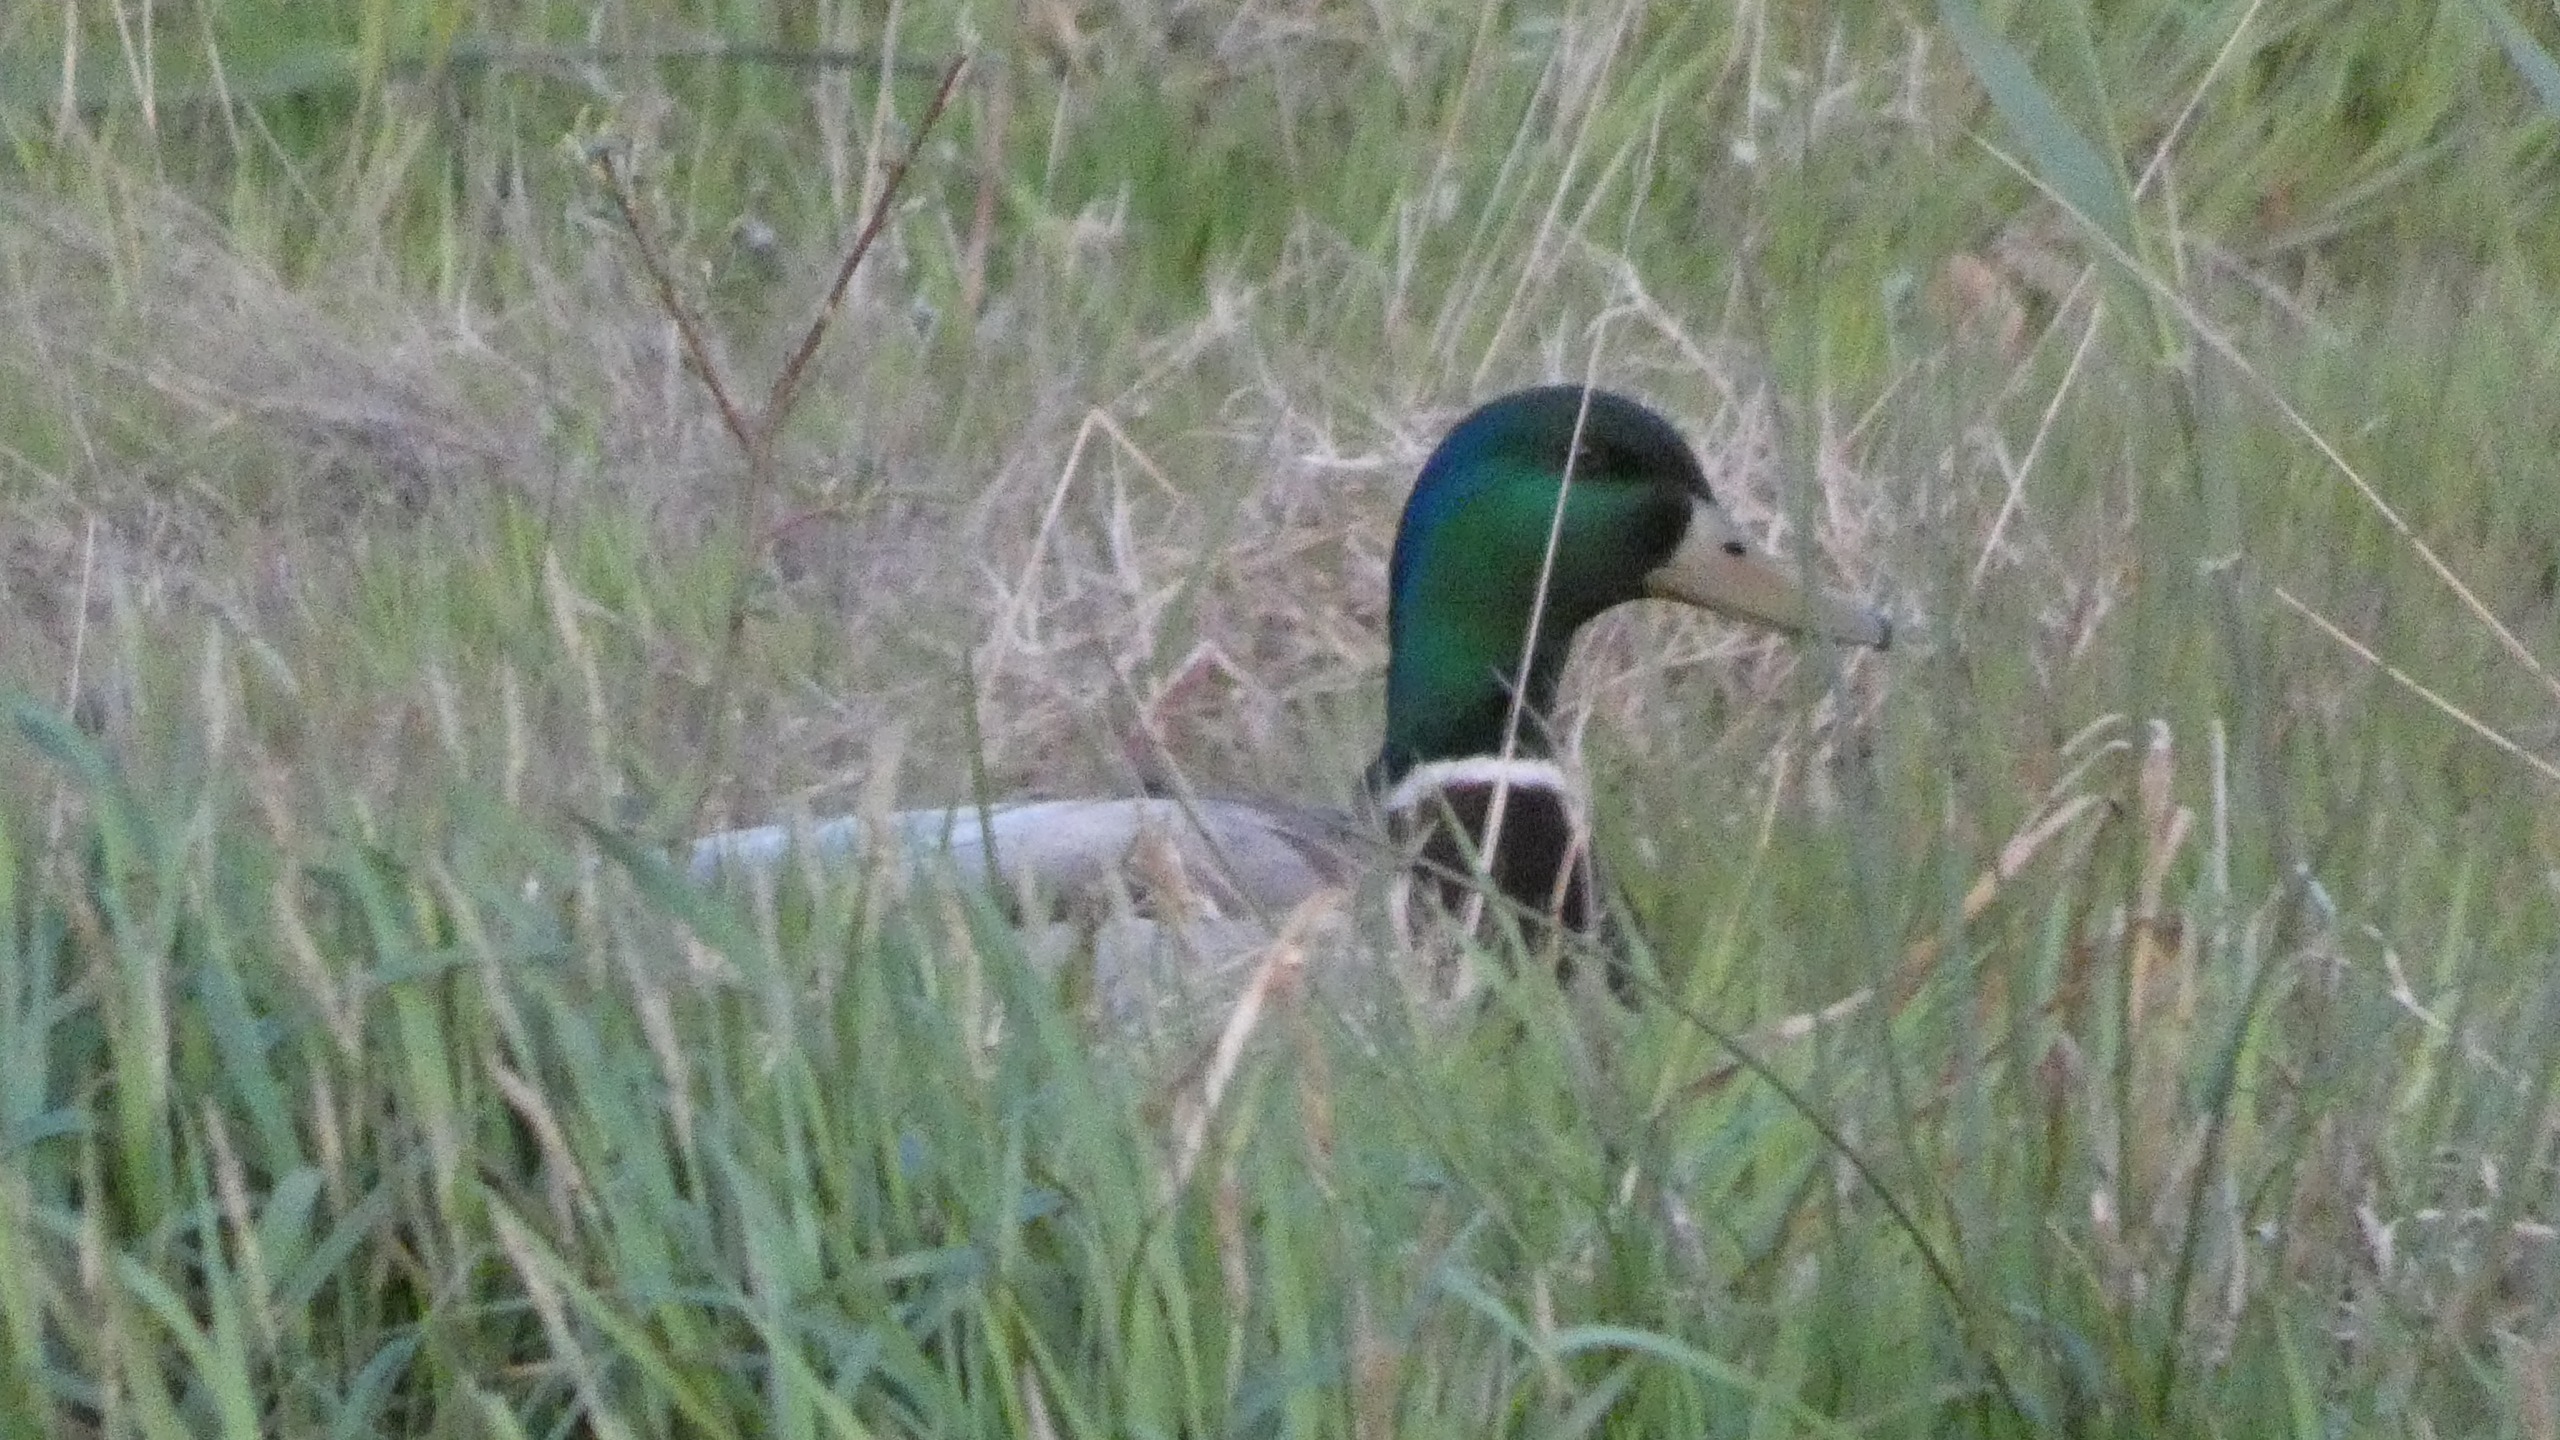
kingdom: Animalia
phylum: Chordata
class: Aves
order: Anseriformes
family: Anatidae
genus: Anas
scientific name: Anas platyrhynchos
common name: Gråand
